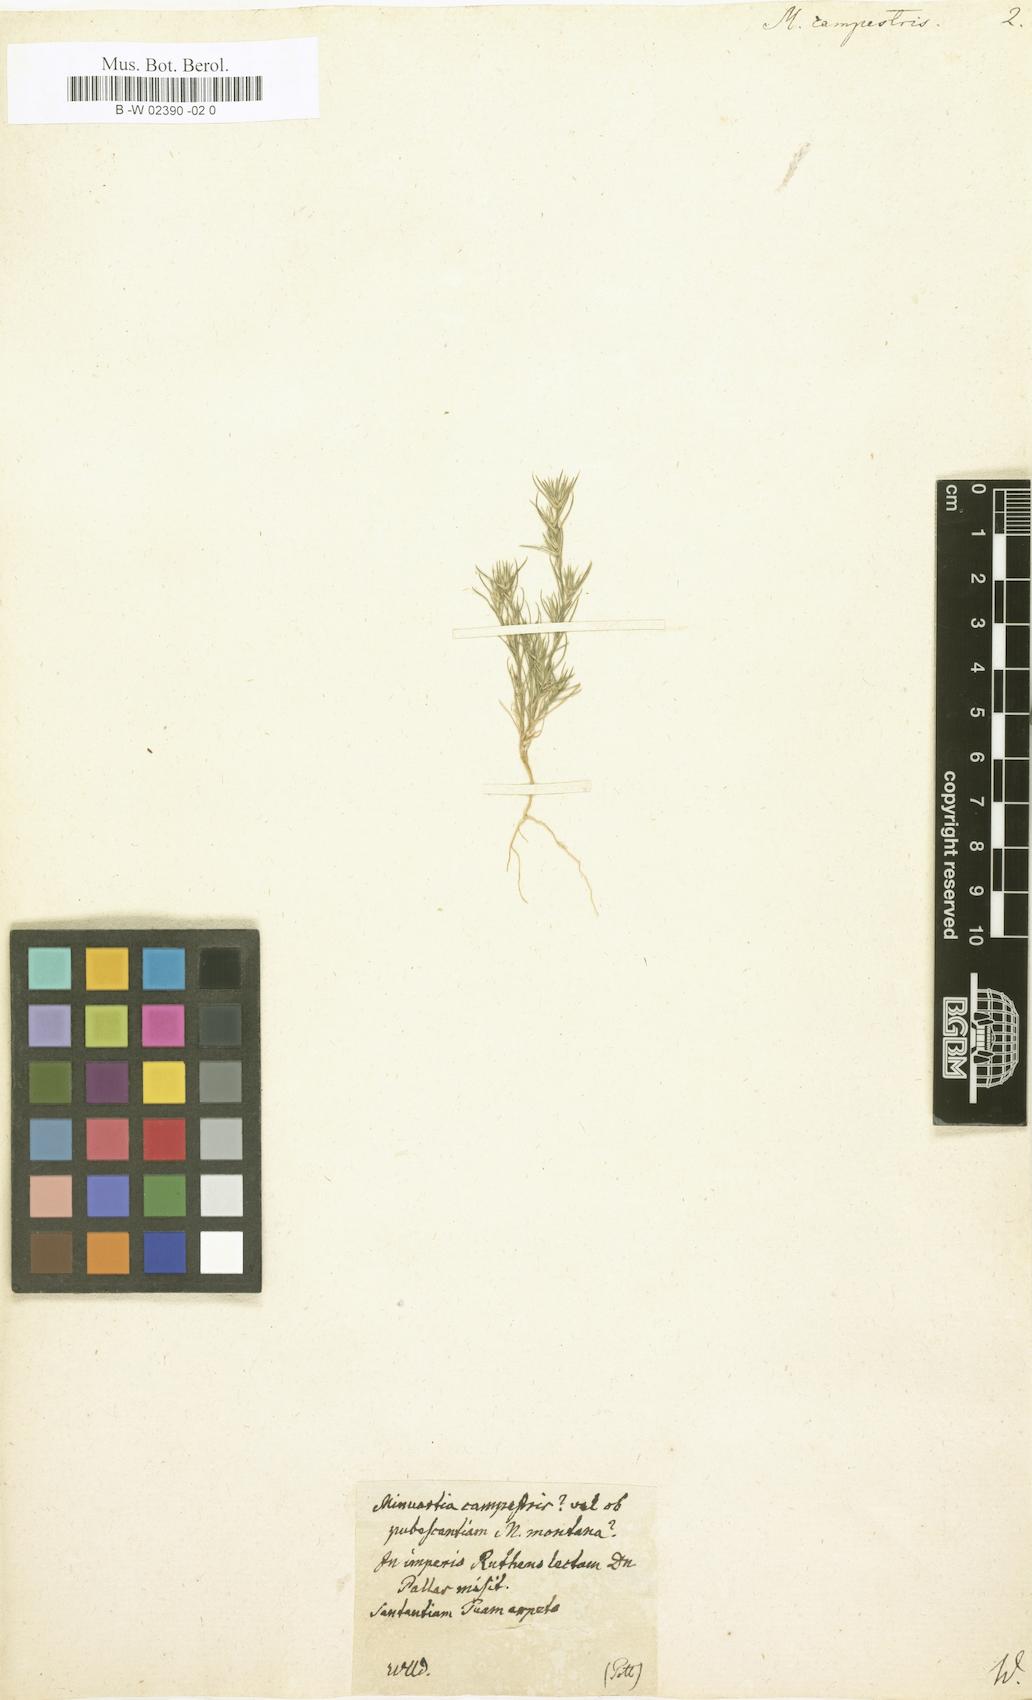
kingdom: Plantae
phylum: Tracheophyta
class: Magnoliopsida
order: Caryophyllales
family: Caryophyllaceae
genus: Minuartia
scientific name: Minuartia campestris
